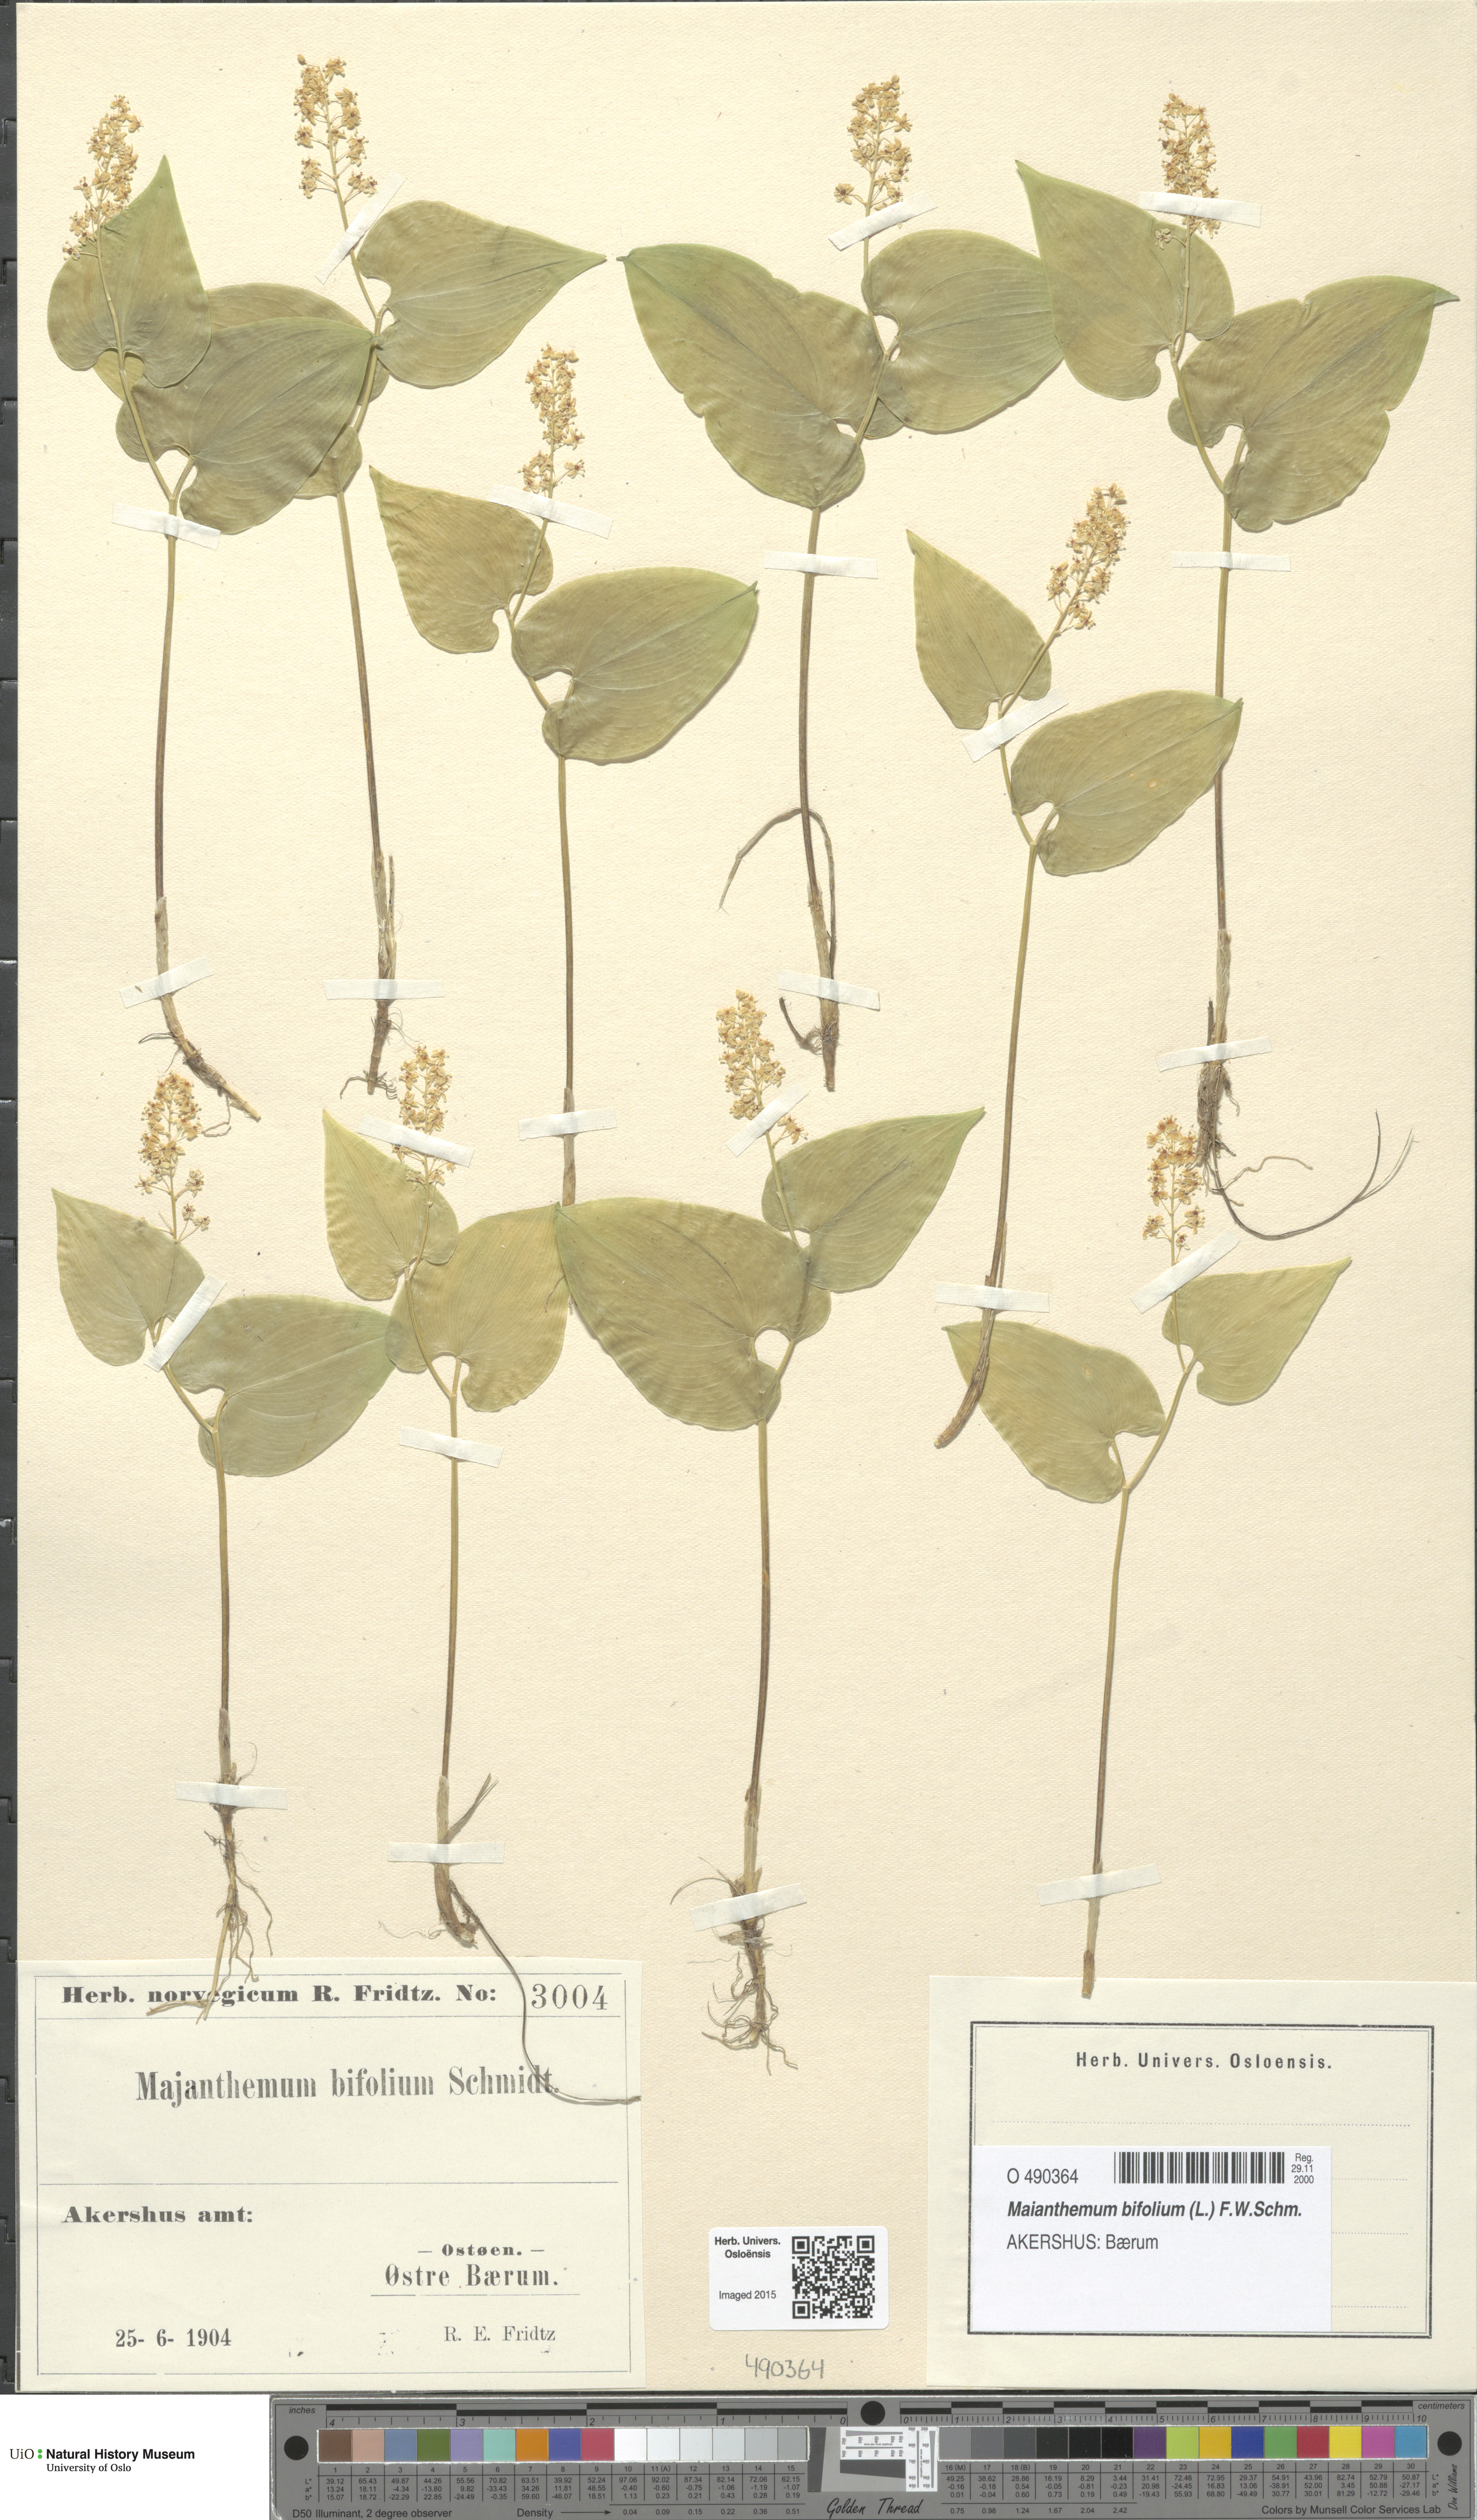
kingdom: Plantae
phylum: Tracheophyta
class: Liliopsida
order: Asparagales
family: Asparagaceae
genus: Maianthemum
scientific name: Maianthemum bifolium
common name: May lily
